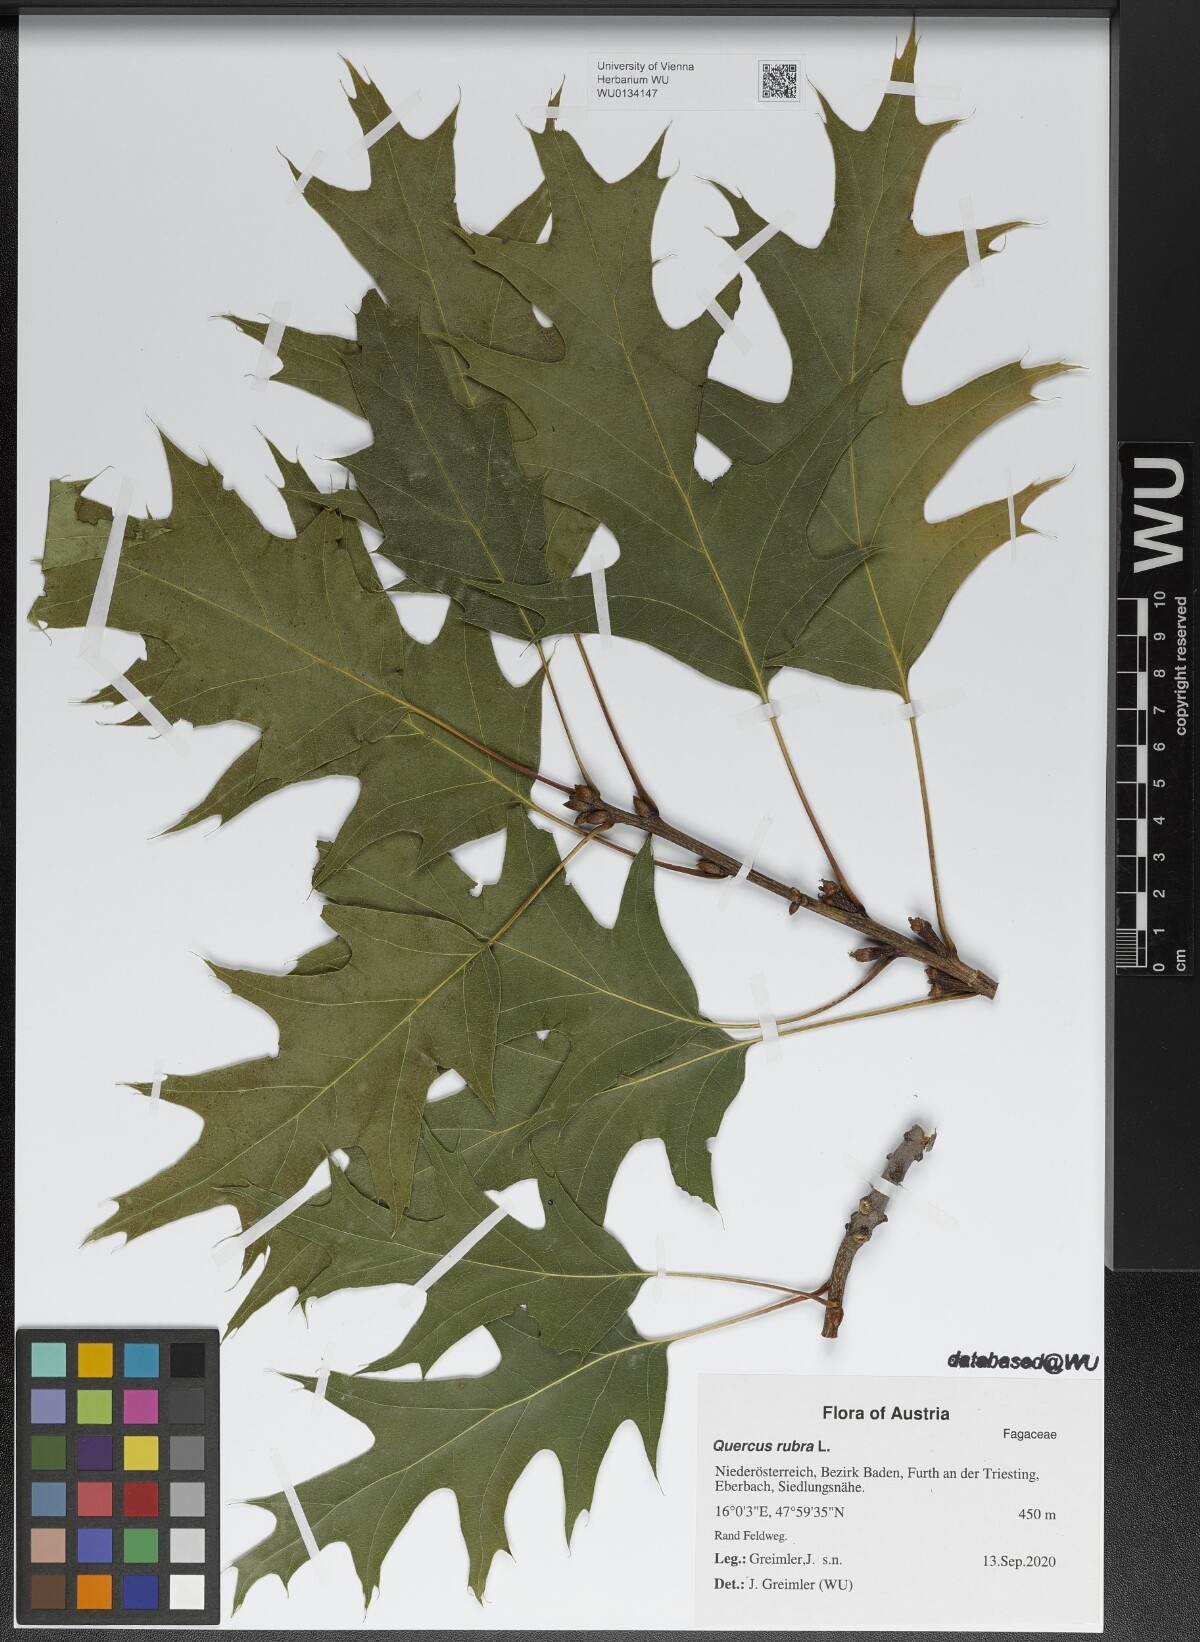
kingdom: Plantae
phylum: Tracheophyta
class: Magnoliopsida
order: Fagales
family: Fagaceae
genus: Quercus
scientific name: Quercus rubra
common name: Red oak
